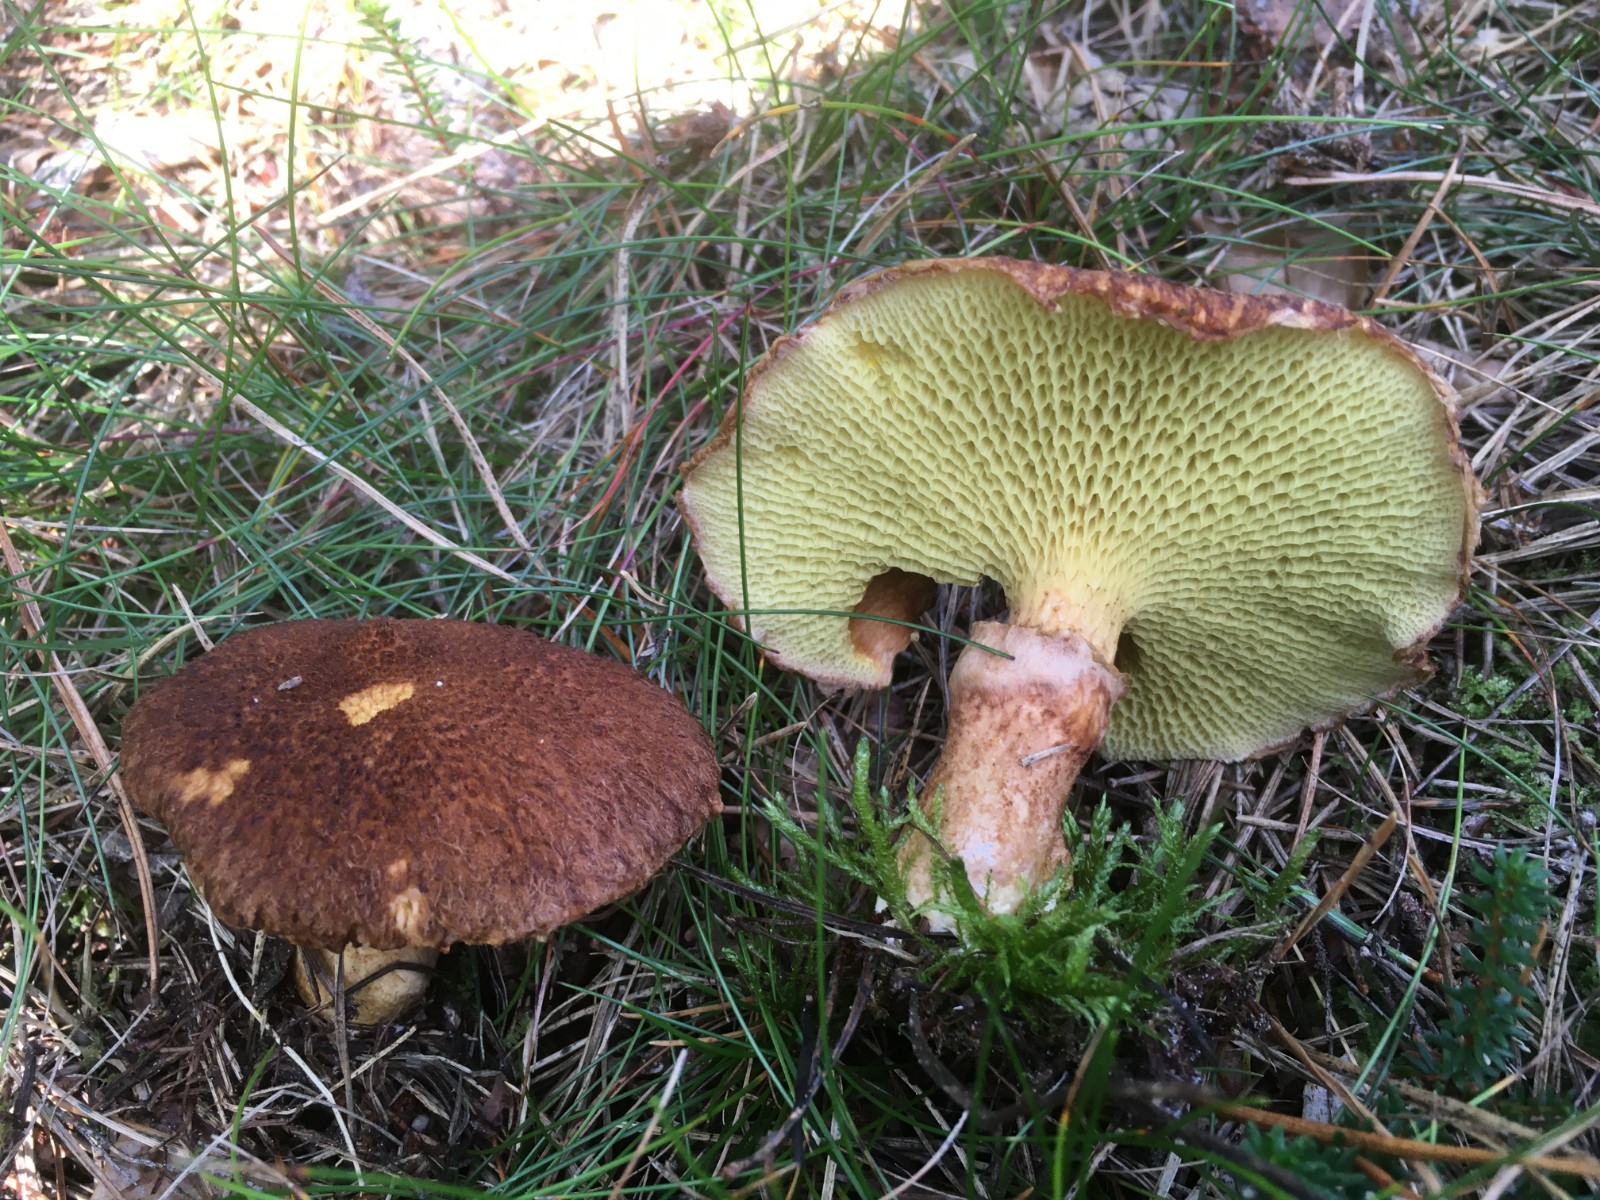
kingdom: Fungi
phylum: Basidiomycota
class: Agaricomycetes
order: Boletales
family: Suillaceae
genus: Suillus
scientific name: Suillus cavipes
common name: hulstokket slimrørhat
